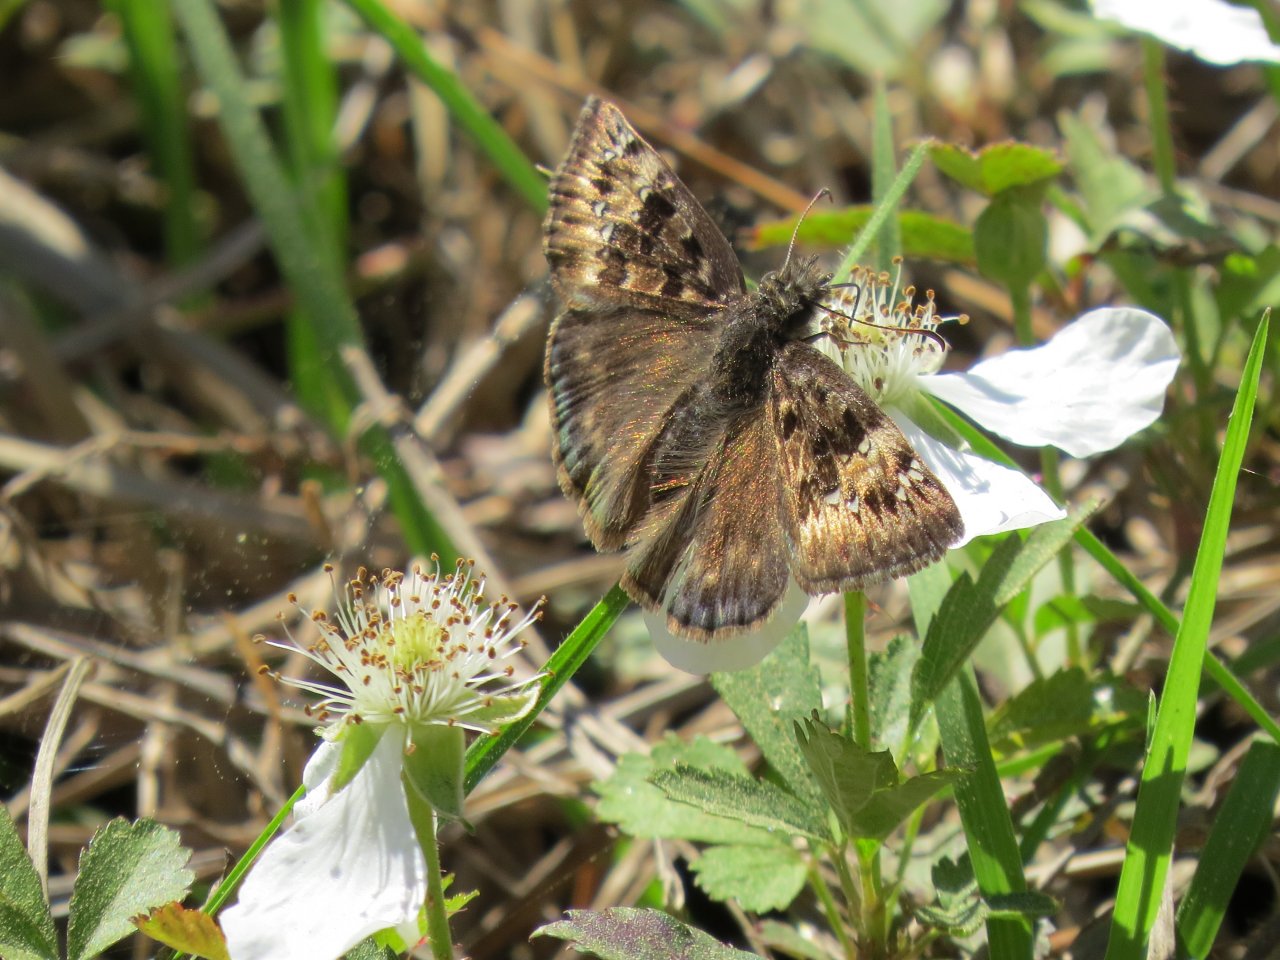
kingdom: Animalia
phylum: Arthropoda
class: Insecta
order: Lepidoptera
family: Hesperiidae
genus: Gesta
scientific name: Gesta
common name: Juvenal's Duskywing
